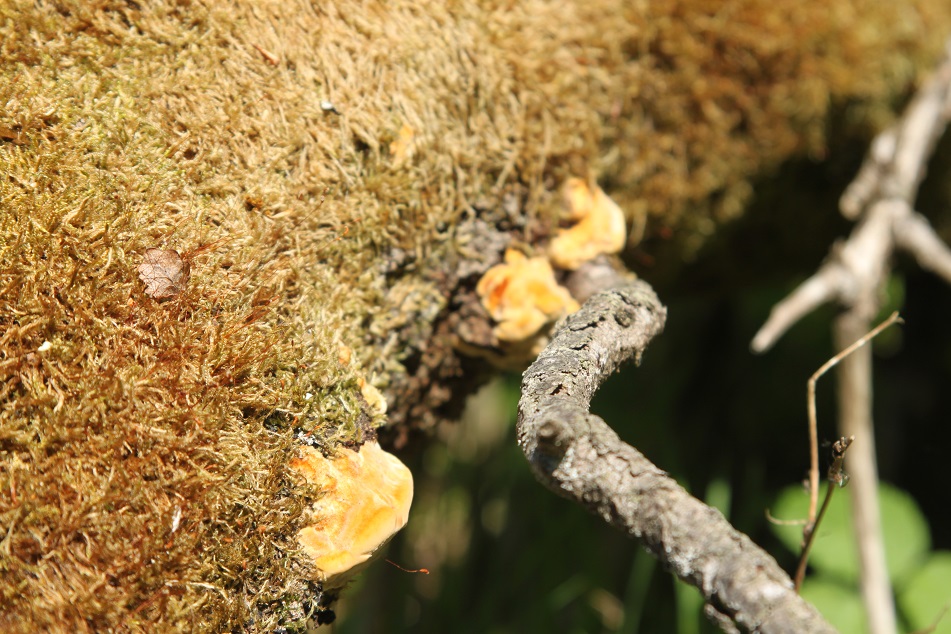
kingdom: Fungi
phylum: Basidiomycota
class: Agaricomycetes
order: Hymenochaetales
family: Hymenochaetaceae
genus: Inocutis
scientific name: Inocutis rheades
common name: ræve-spejlporesvamp
